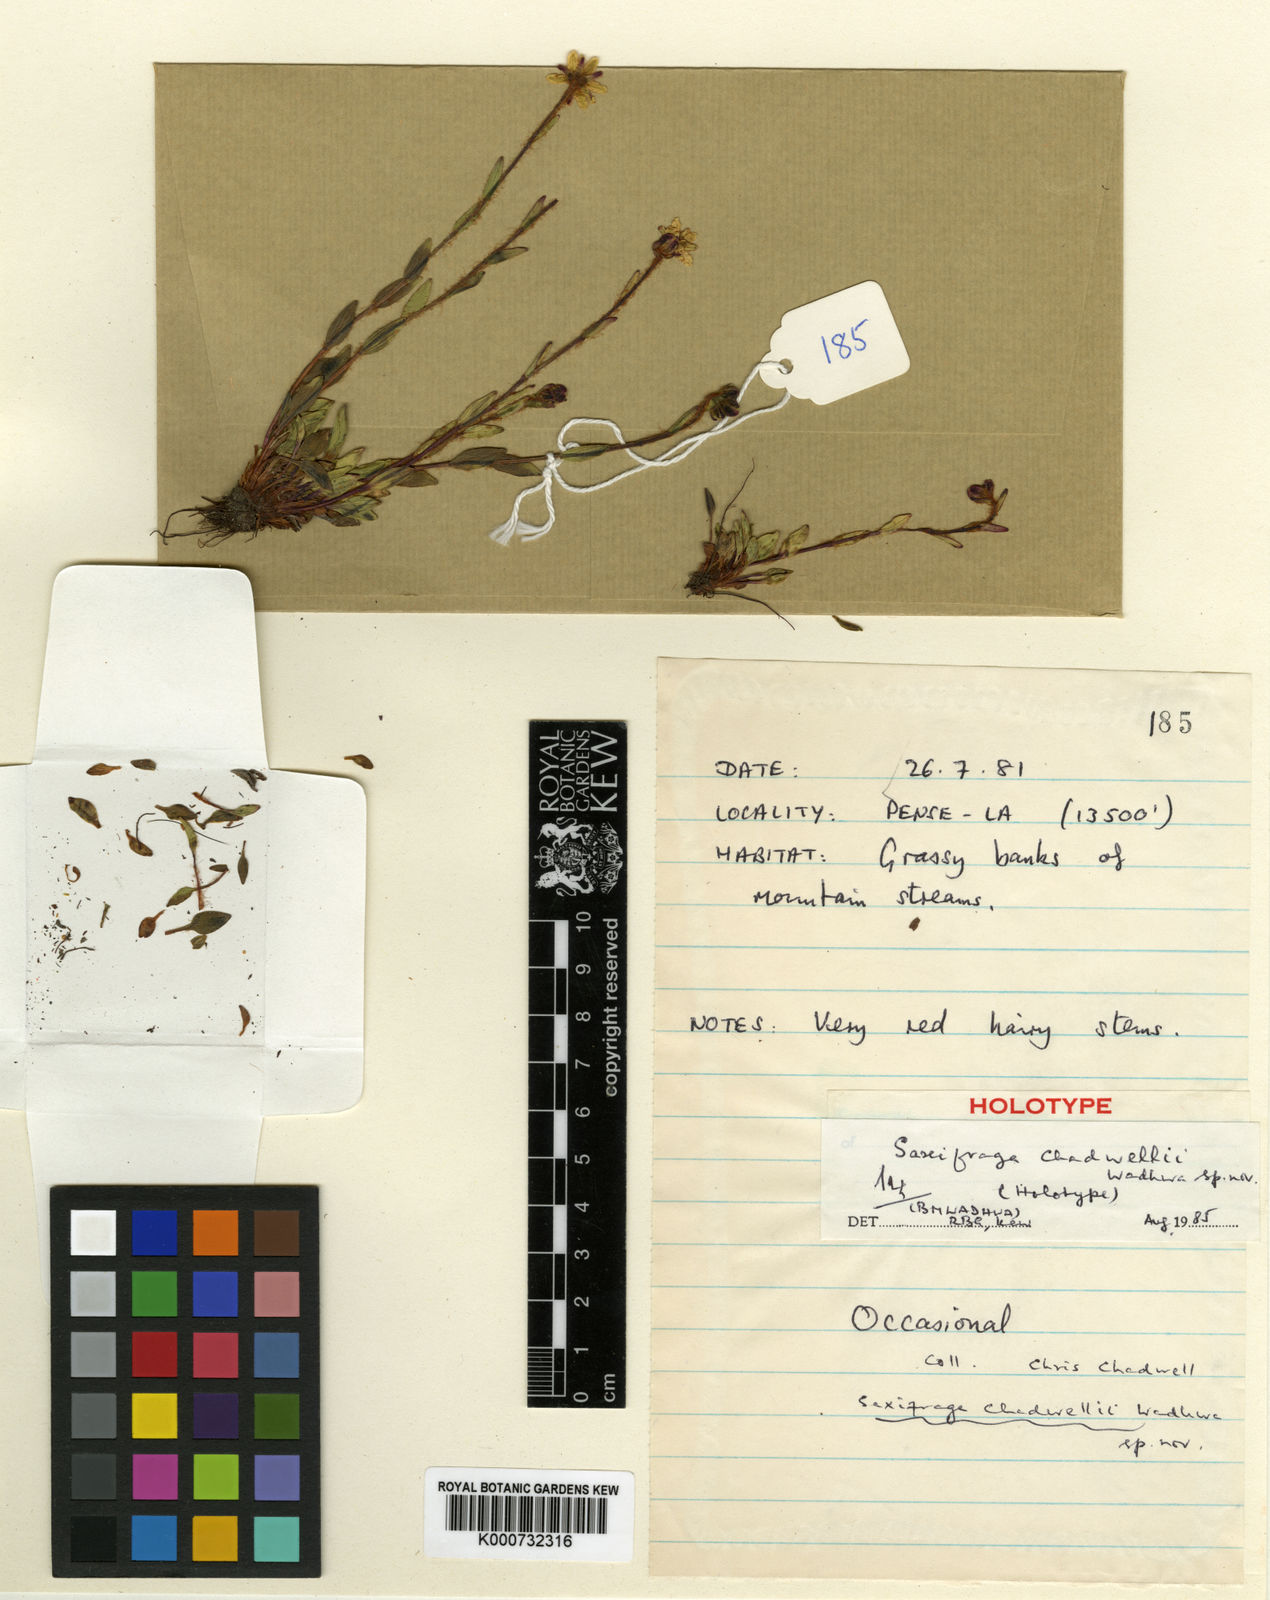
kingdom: Plantae
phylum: Tracheophyta
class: Magnoliopsida
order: Saxifragales
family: Saxifragaceae
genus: Saxifraga
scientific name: Saxifraga chadwellii
